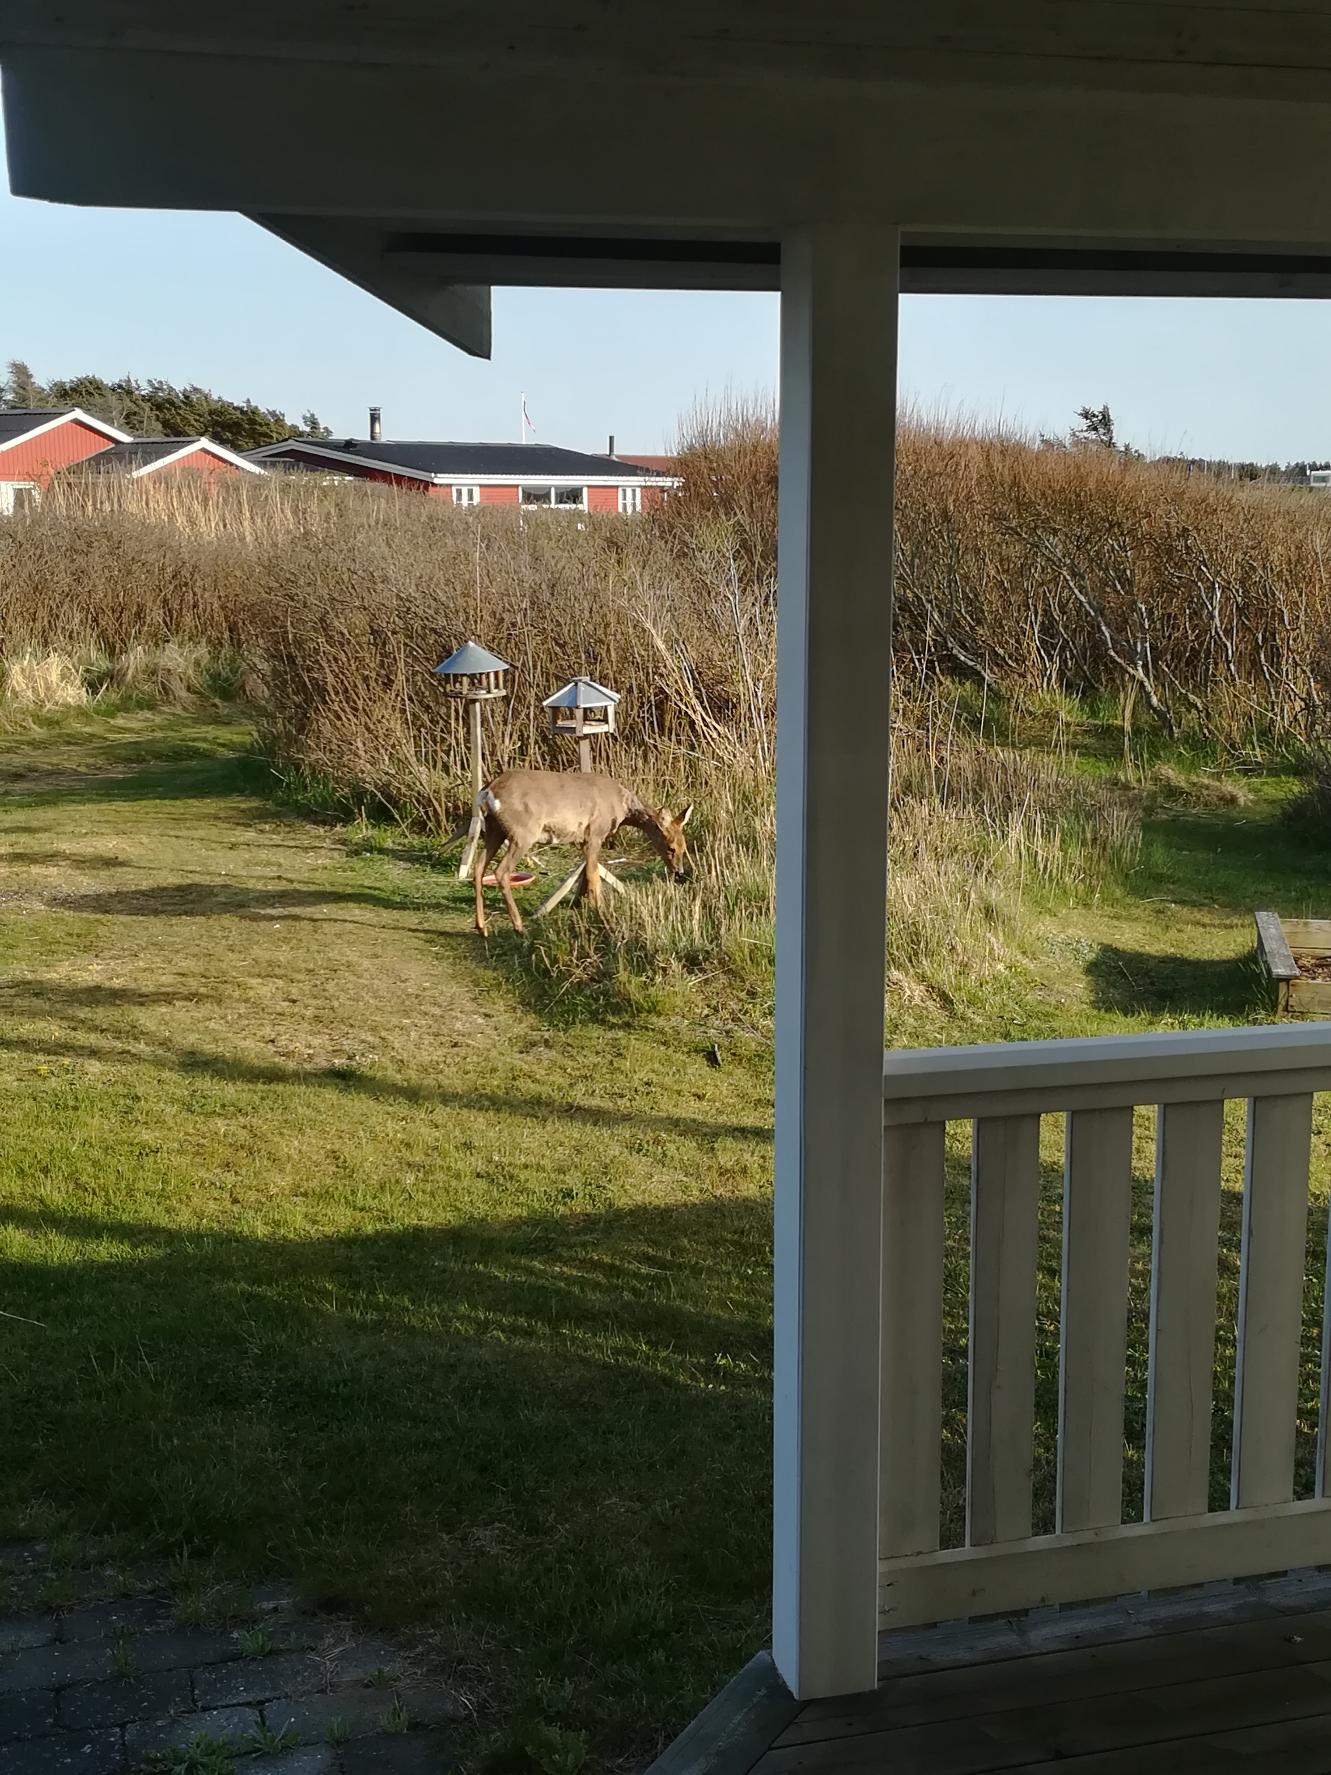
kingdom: Animalia
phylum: Chordata
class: Mammalia
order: Artiodactyla
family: Cervidae
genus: Capreolus
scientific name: Capreolus capreolus
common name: Rådyr
